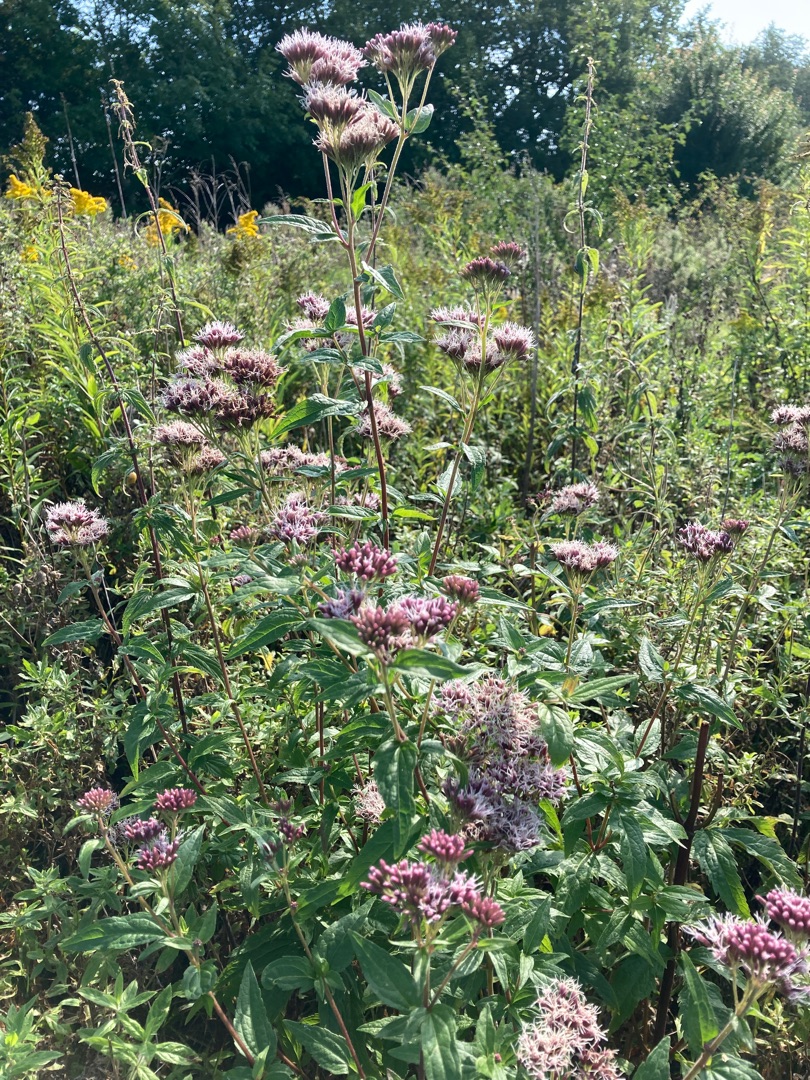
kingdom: Plantae
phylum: Tracheophyta
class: Magnoliopsida
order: Asterales
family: Asteraceae
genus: Eupatorium
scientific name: Eupatorium cannabinum
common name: Hjortetrøst
